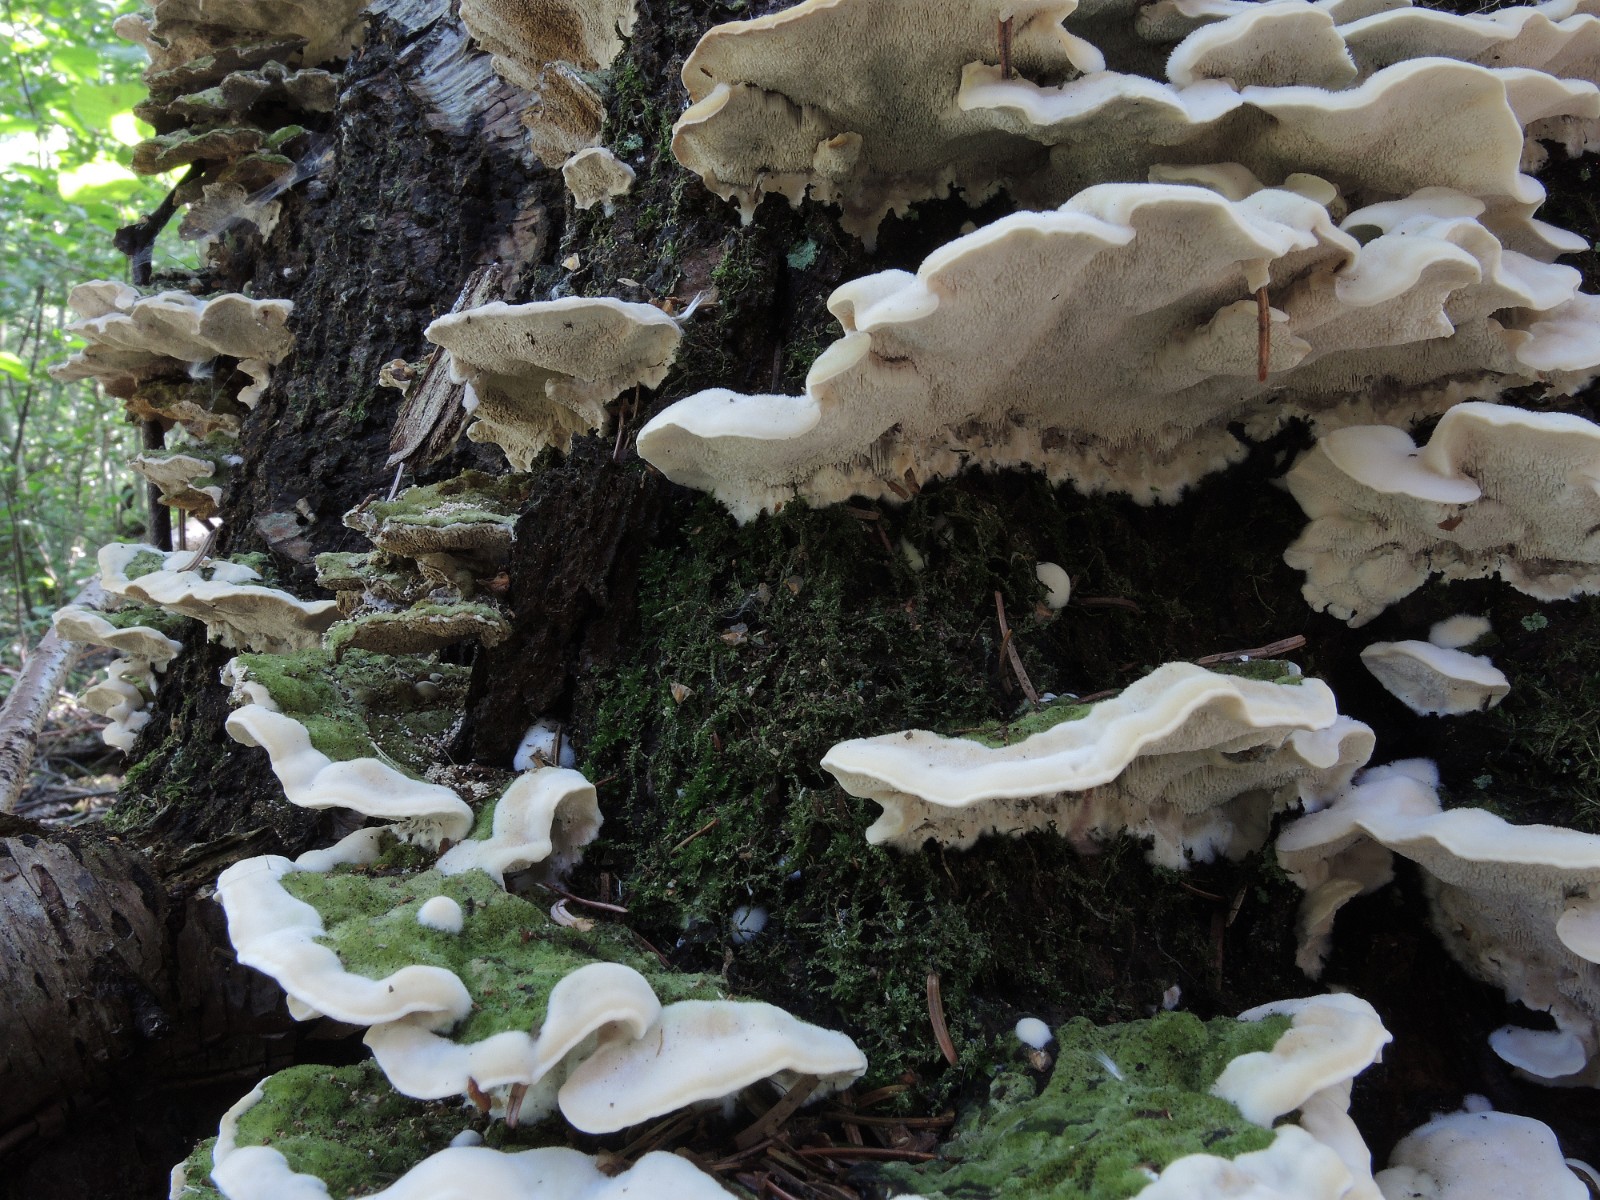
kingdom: Fungi
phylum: Basidiomycota
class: Agaricomycetes
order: Polyporales
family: Cerrenaceae
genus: Cerrena
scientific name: Cerrena unicolor
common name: ensfarvet læderporesvamp
